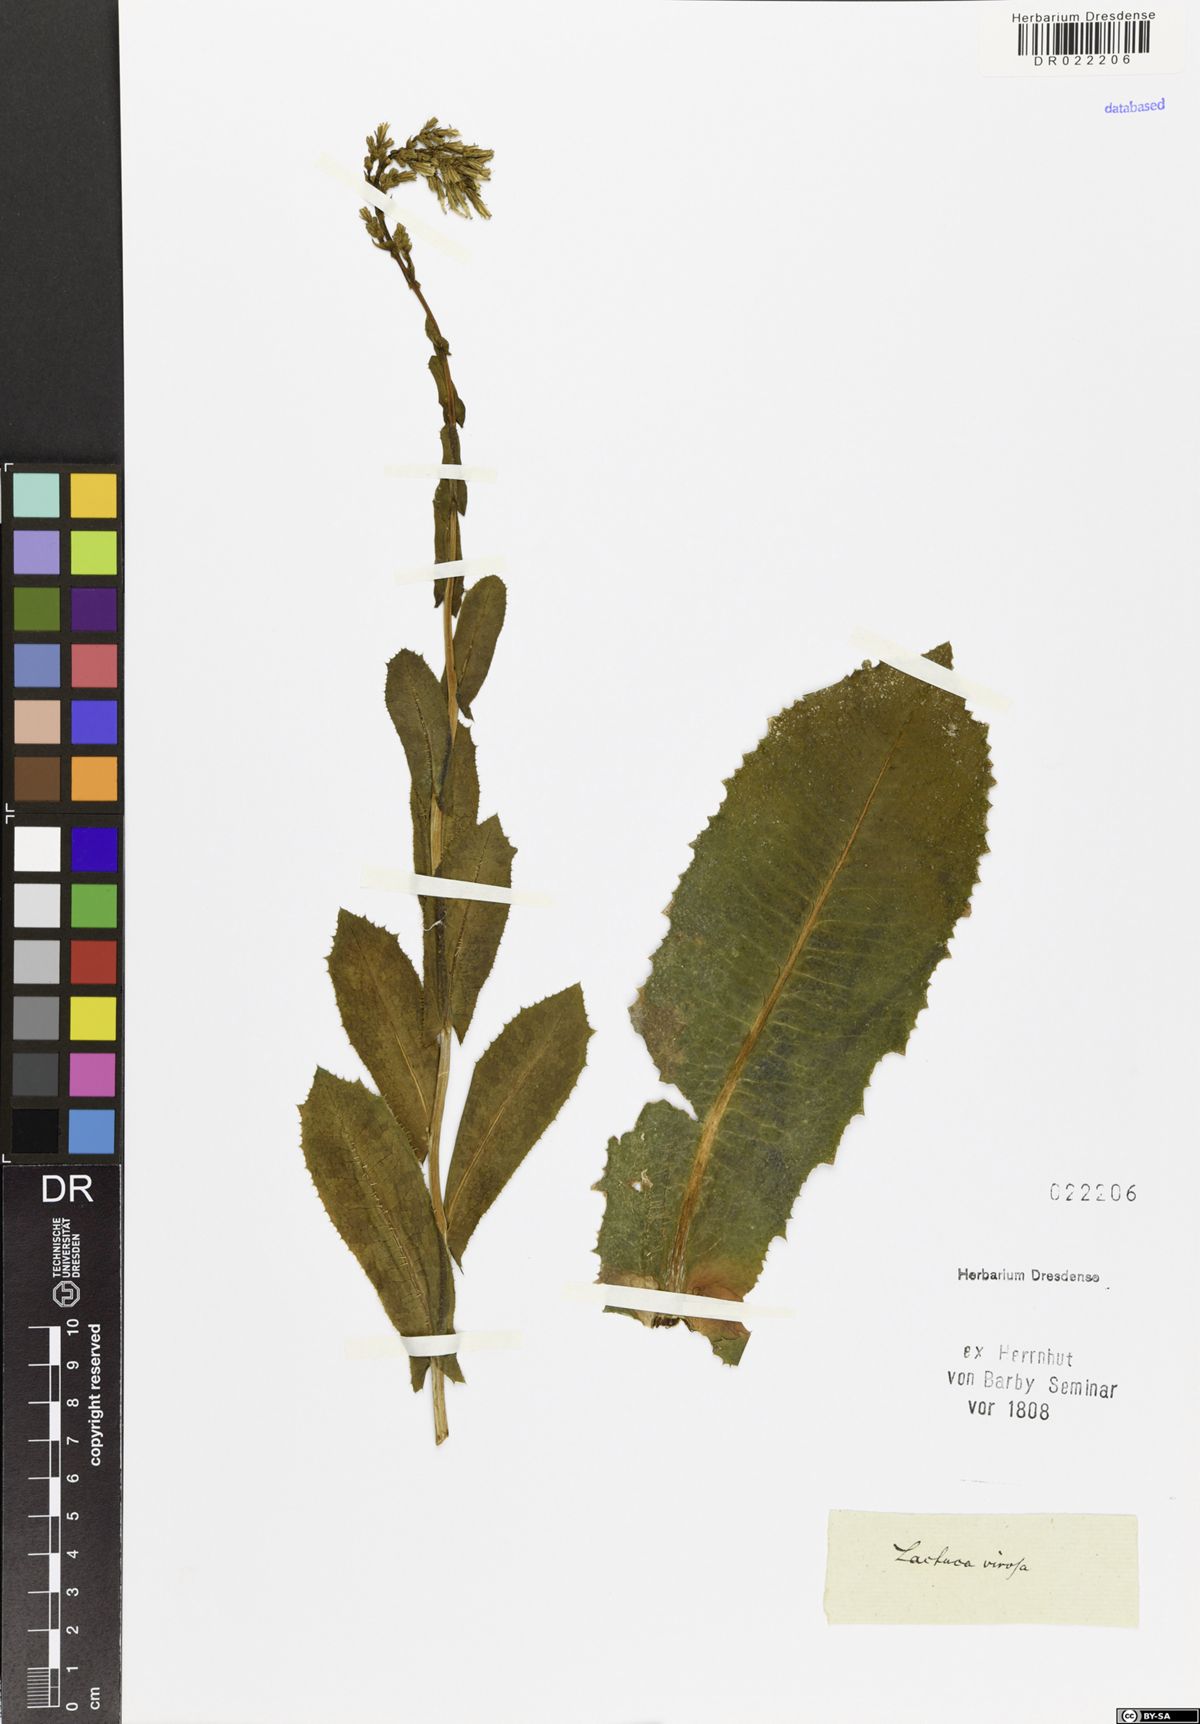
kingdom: Plantae
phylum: Tracheophyta
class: Magnoliopsida
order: Asterales
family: Asteraceae
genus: Lactuca
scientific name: Lactuca virosa
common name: Great lettuce
